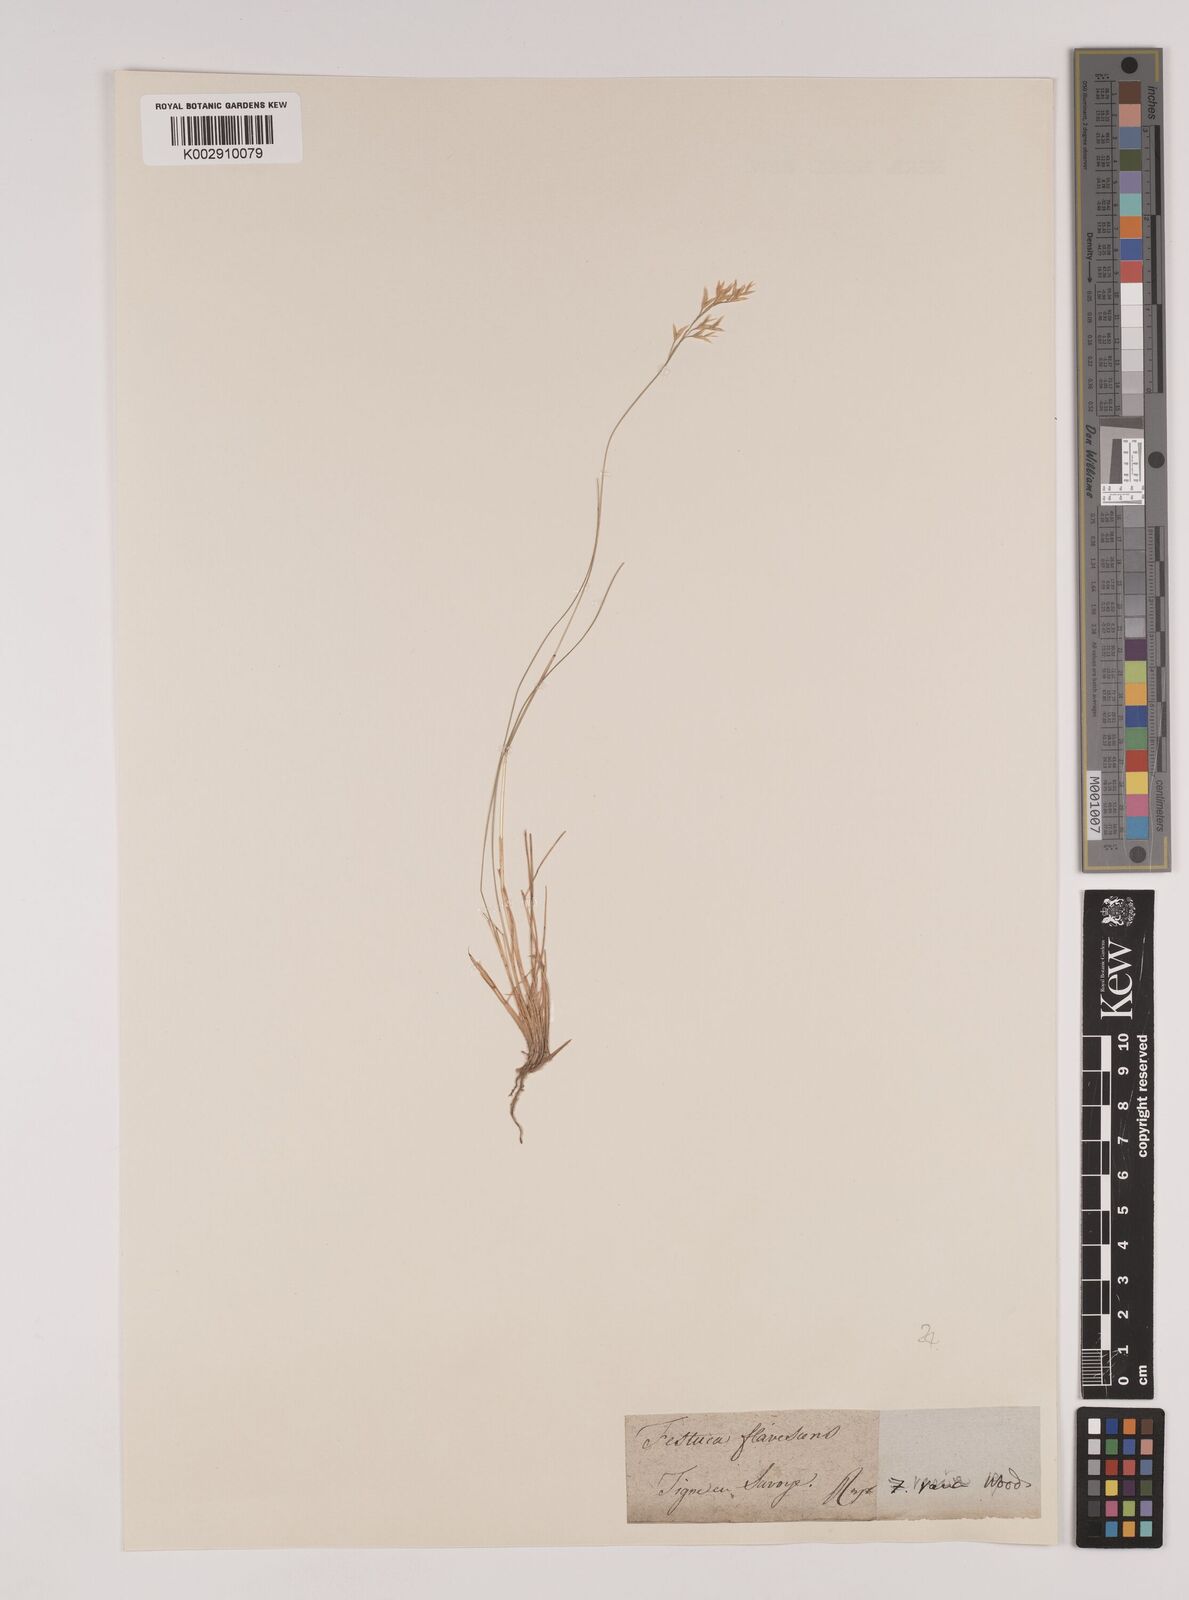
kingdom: Plantae
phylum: Tracheophyta
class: Liliopsida
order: Poales
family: Poaceae
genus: Festuca
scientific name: Festuca flavescens
